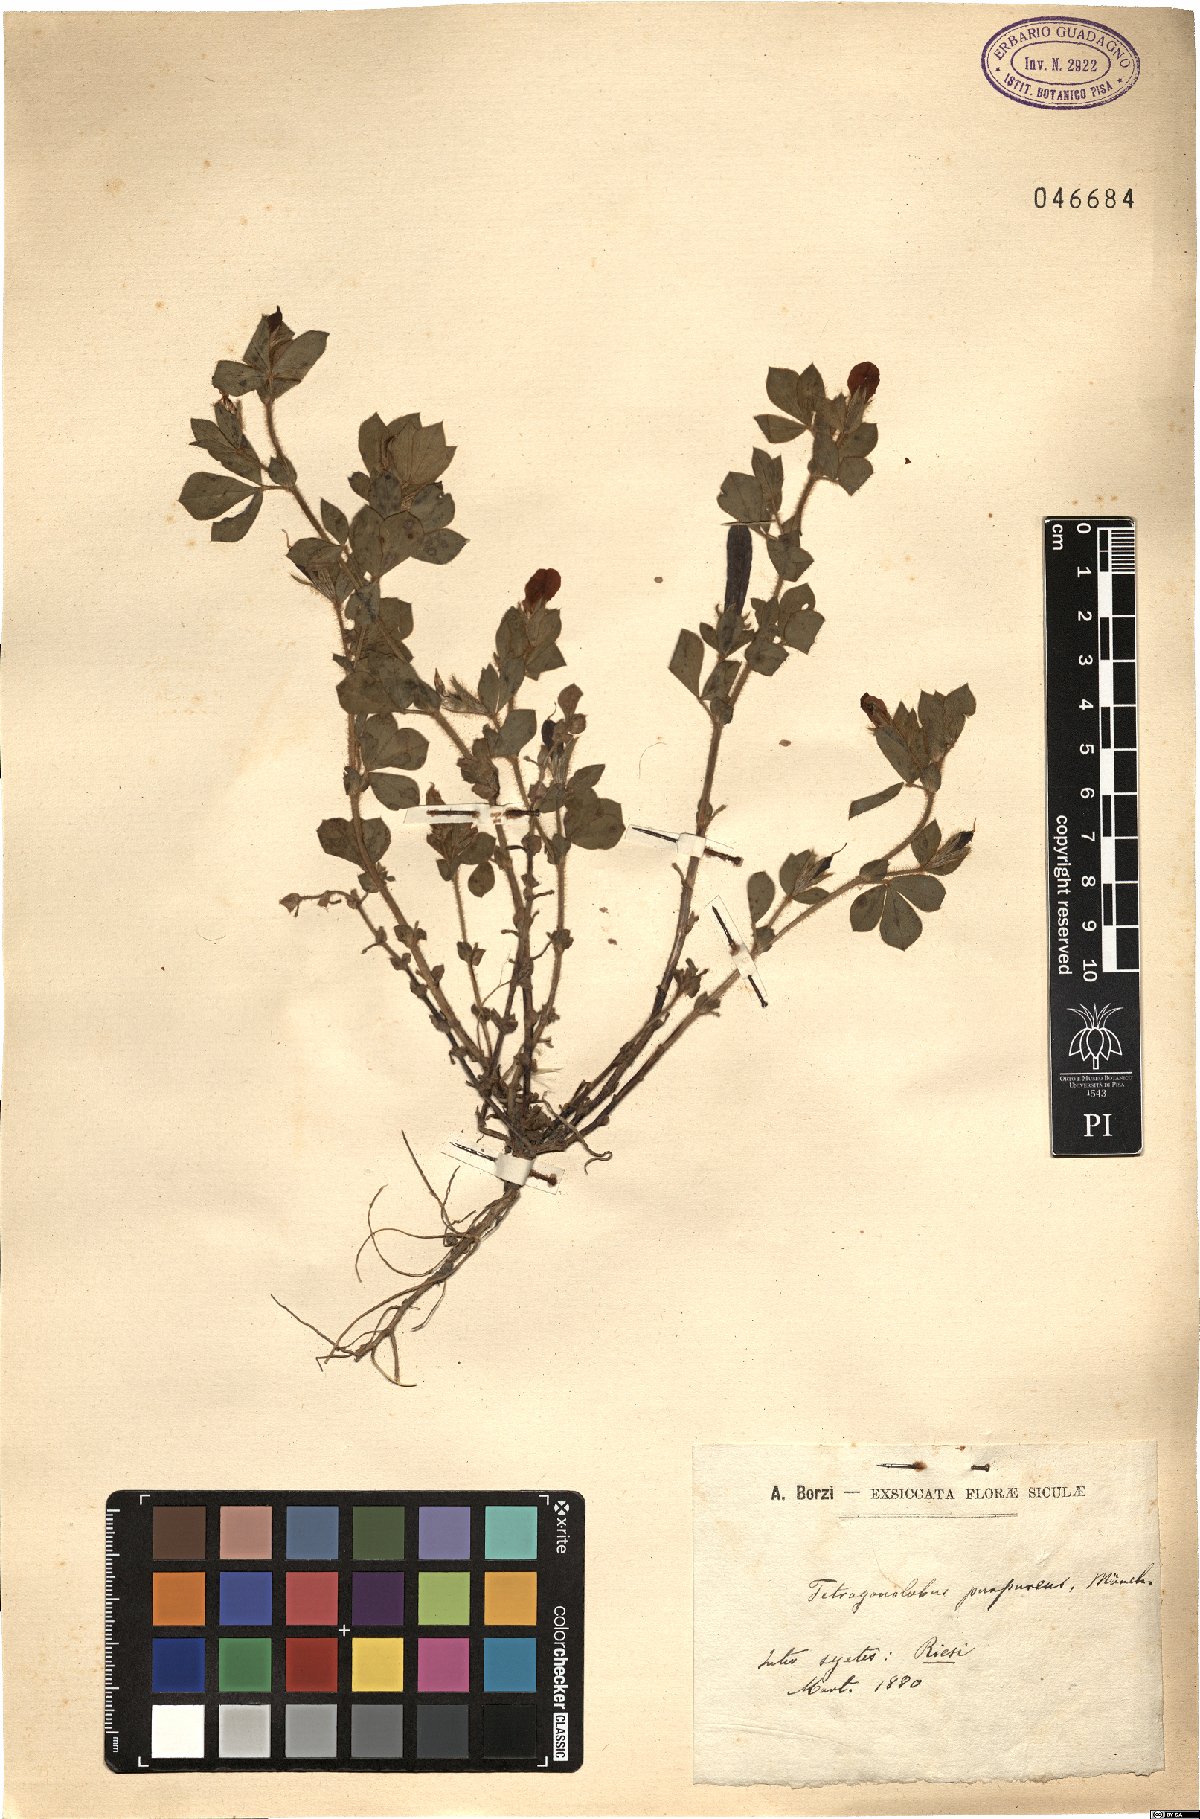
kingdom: Plantae
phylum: Tracheophyta
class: Magnoliopsida
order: Fabales
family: Fabaceae
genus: Lotus
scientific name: Lotus tetragonolobus
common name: Asparagus-pea
